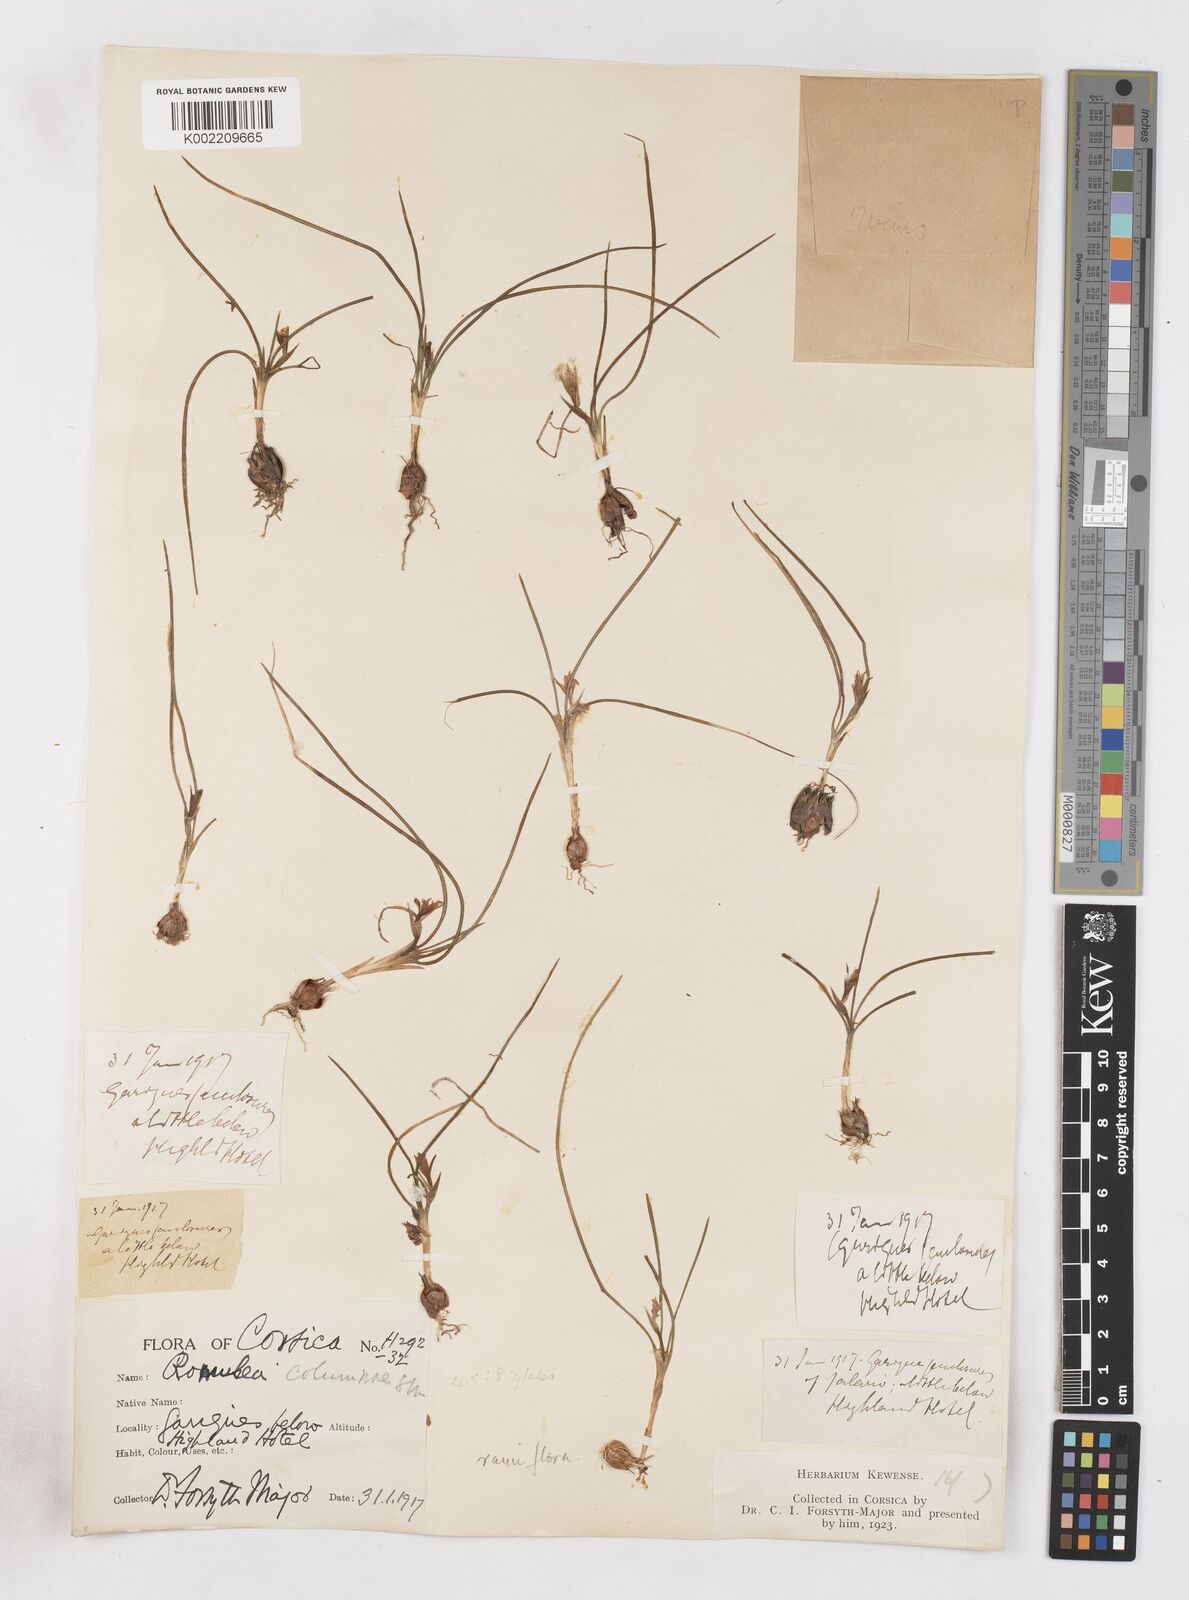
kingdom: Plantae
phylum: Tracheophyta
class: Liliopsida
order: Asparagales
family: Iridaceae
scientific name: Iridaceae
